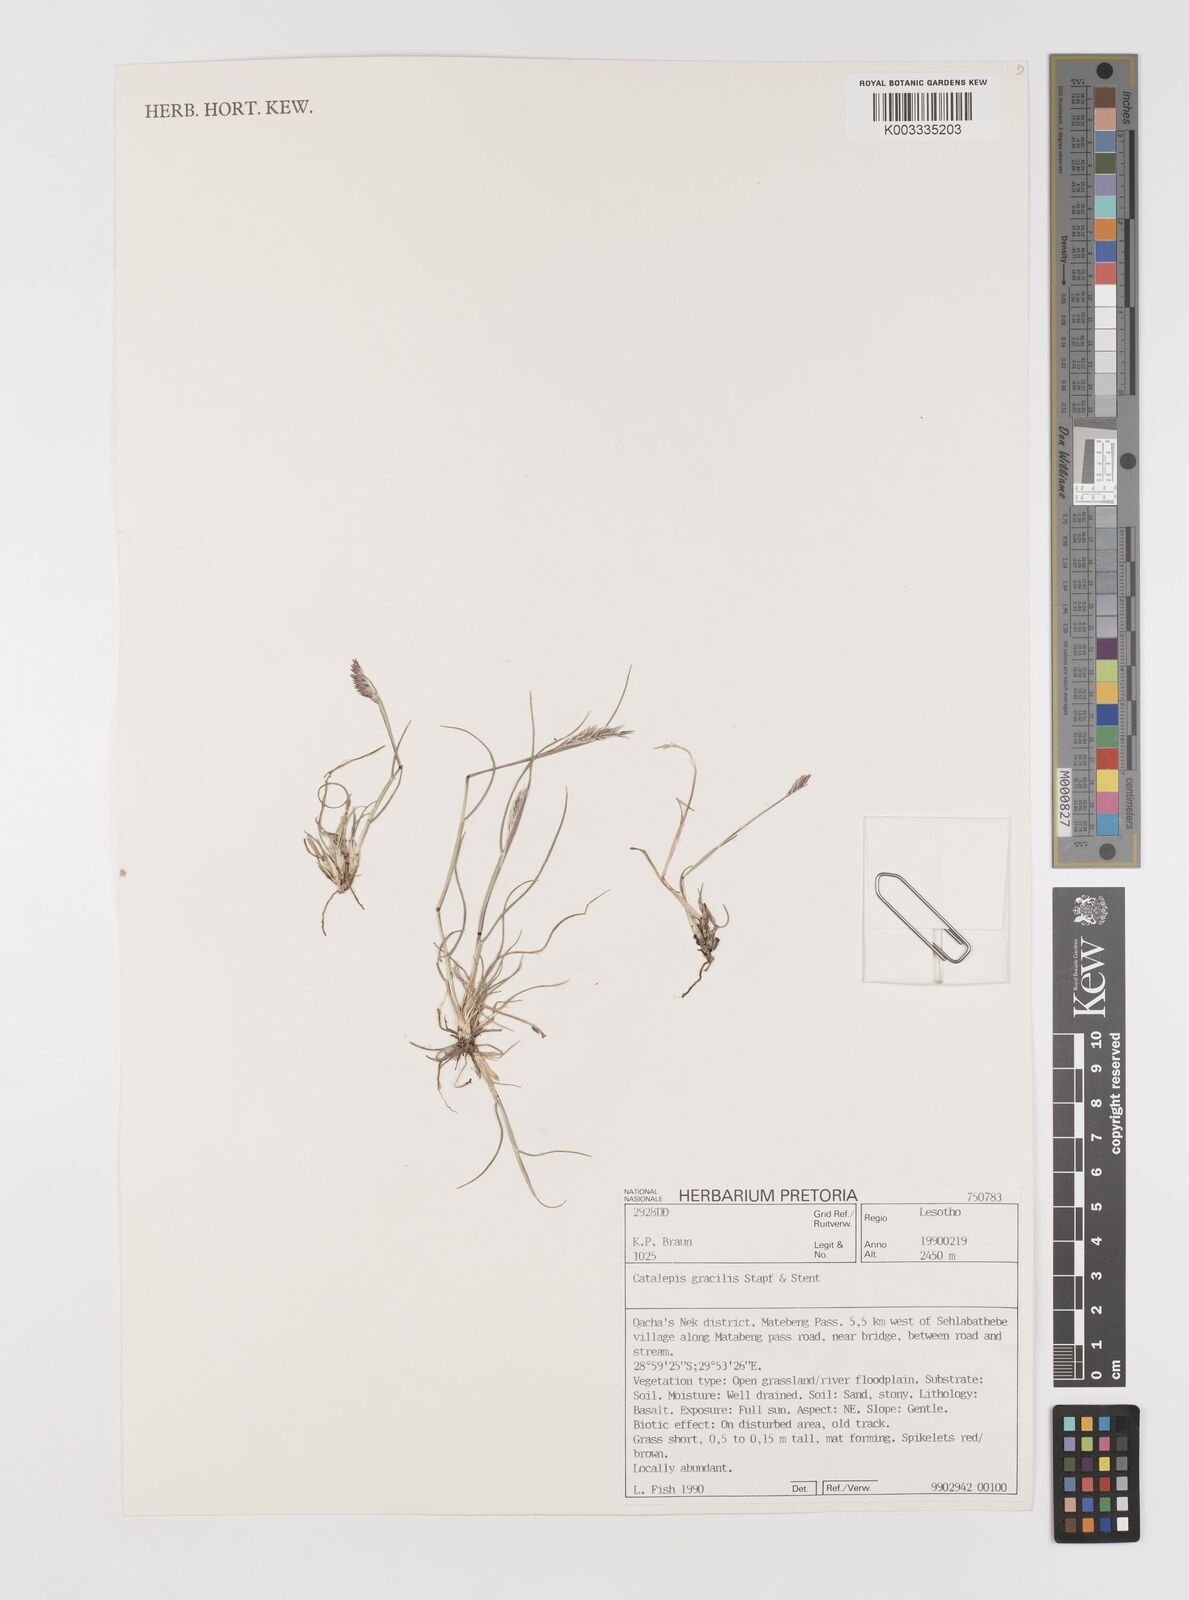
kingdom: Plantae
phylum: Tracheophyta
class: Liliopsida
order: Poales
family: Poaceae
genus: Catalepis
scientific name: Catalepis gracilis
